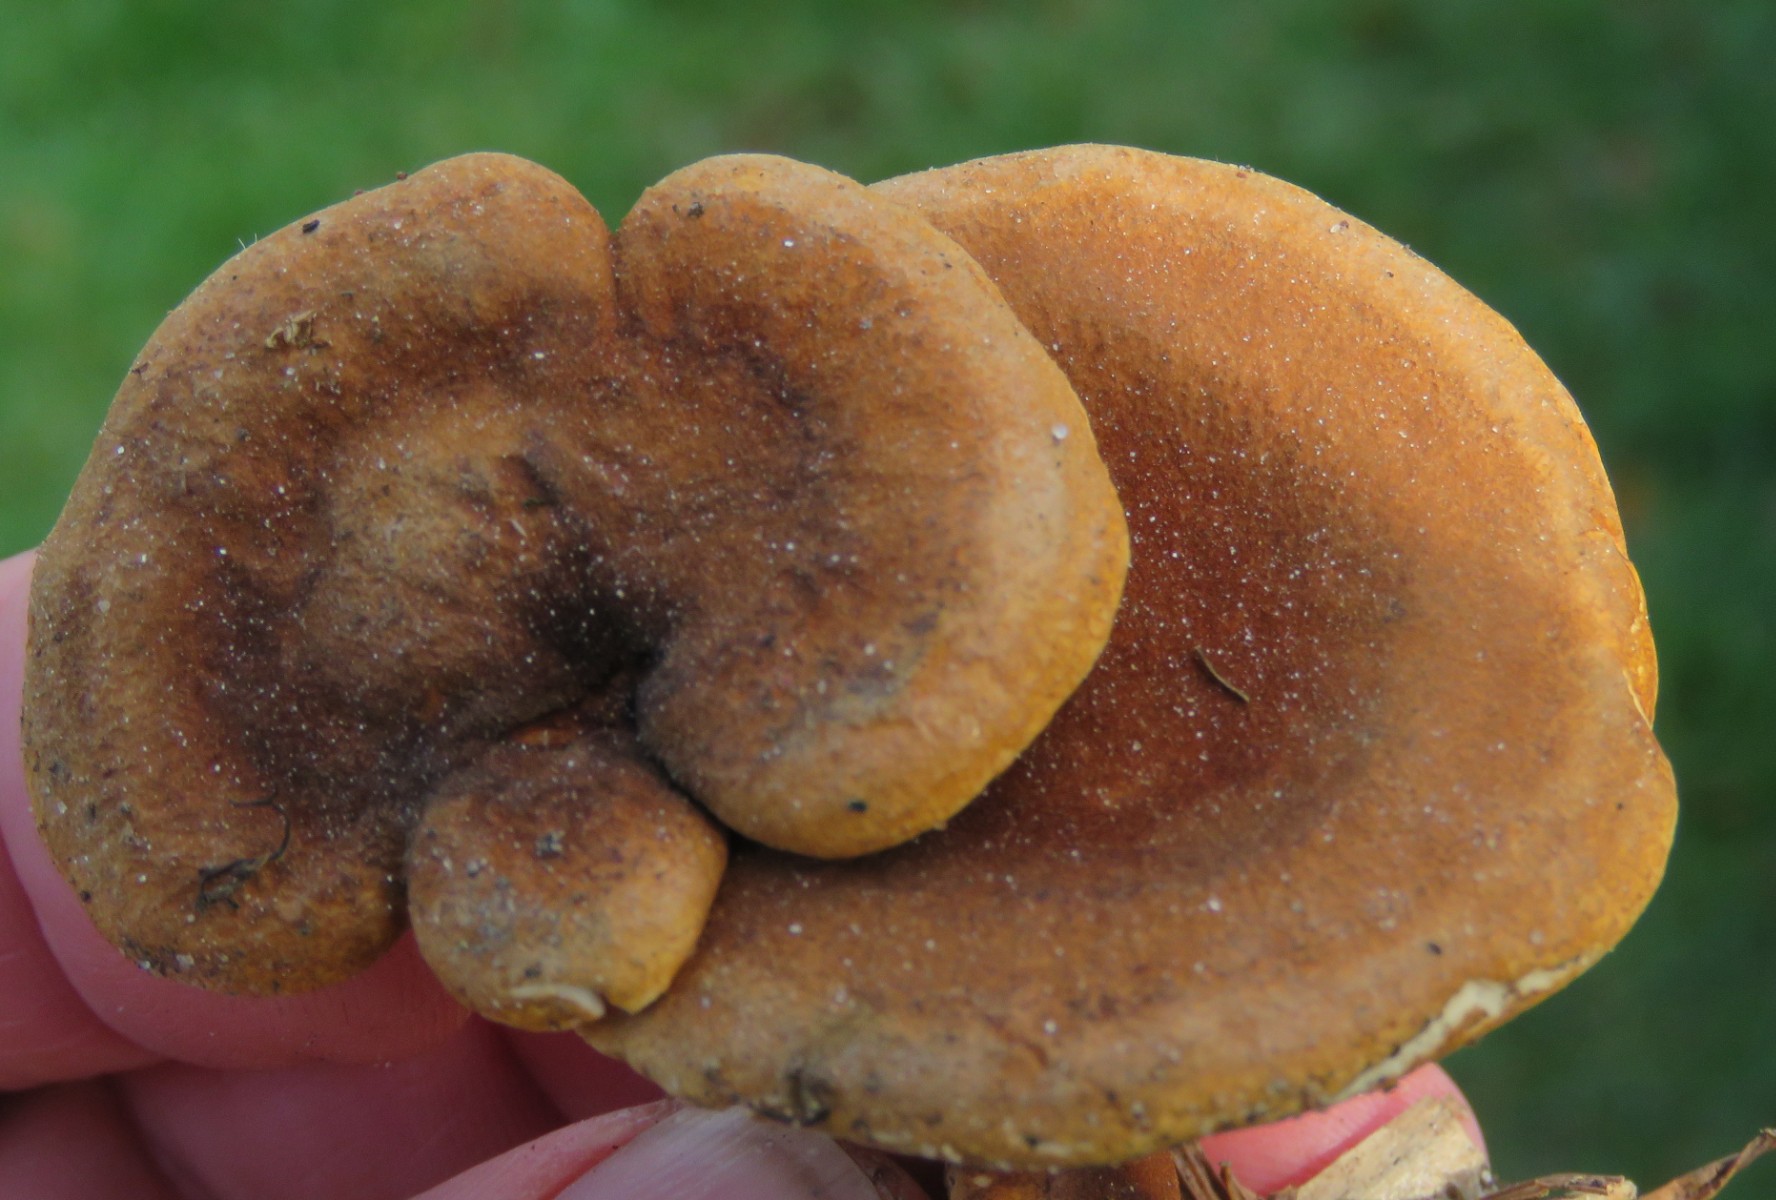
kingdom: Fungi
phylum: Basidiomycota
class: Agaricomycetes
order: Boletales
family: Hygrophoropsidaceae
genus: Hygrophoropsis
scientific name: Hygrophoropsis rufa
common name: brunfiltet orangekantarel
